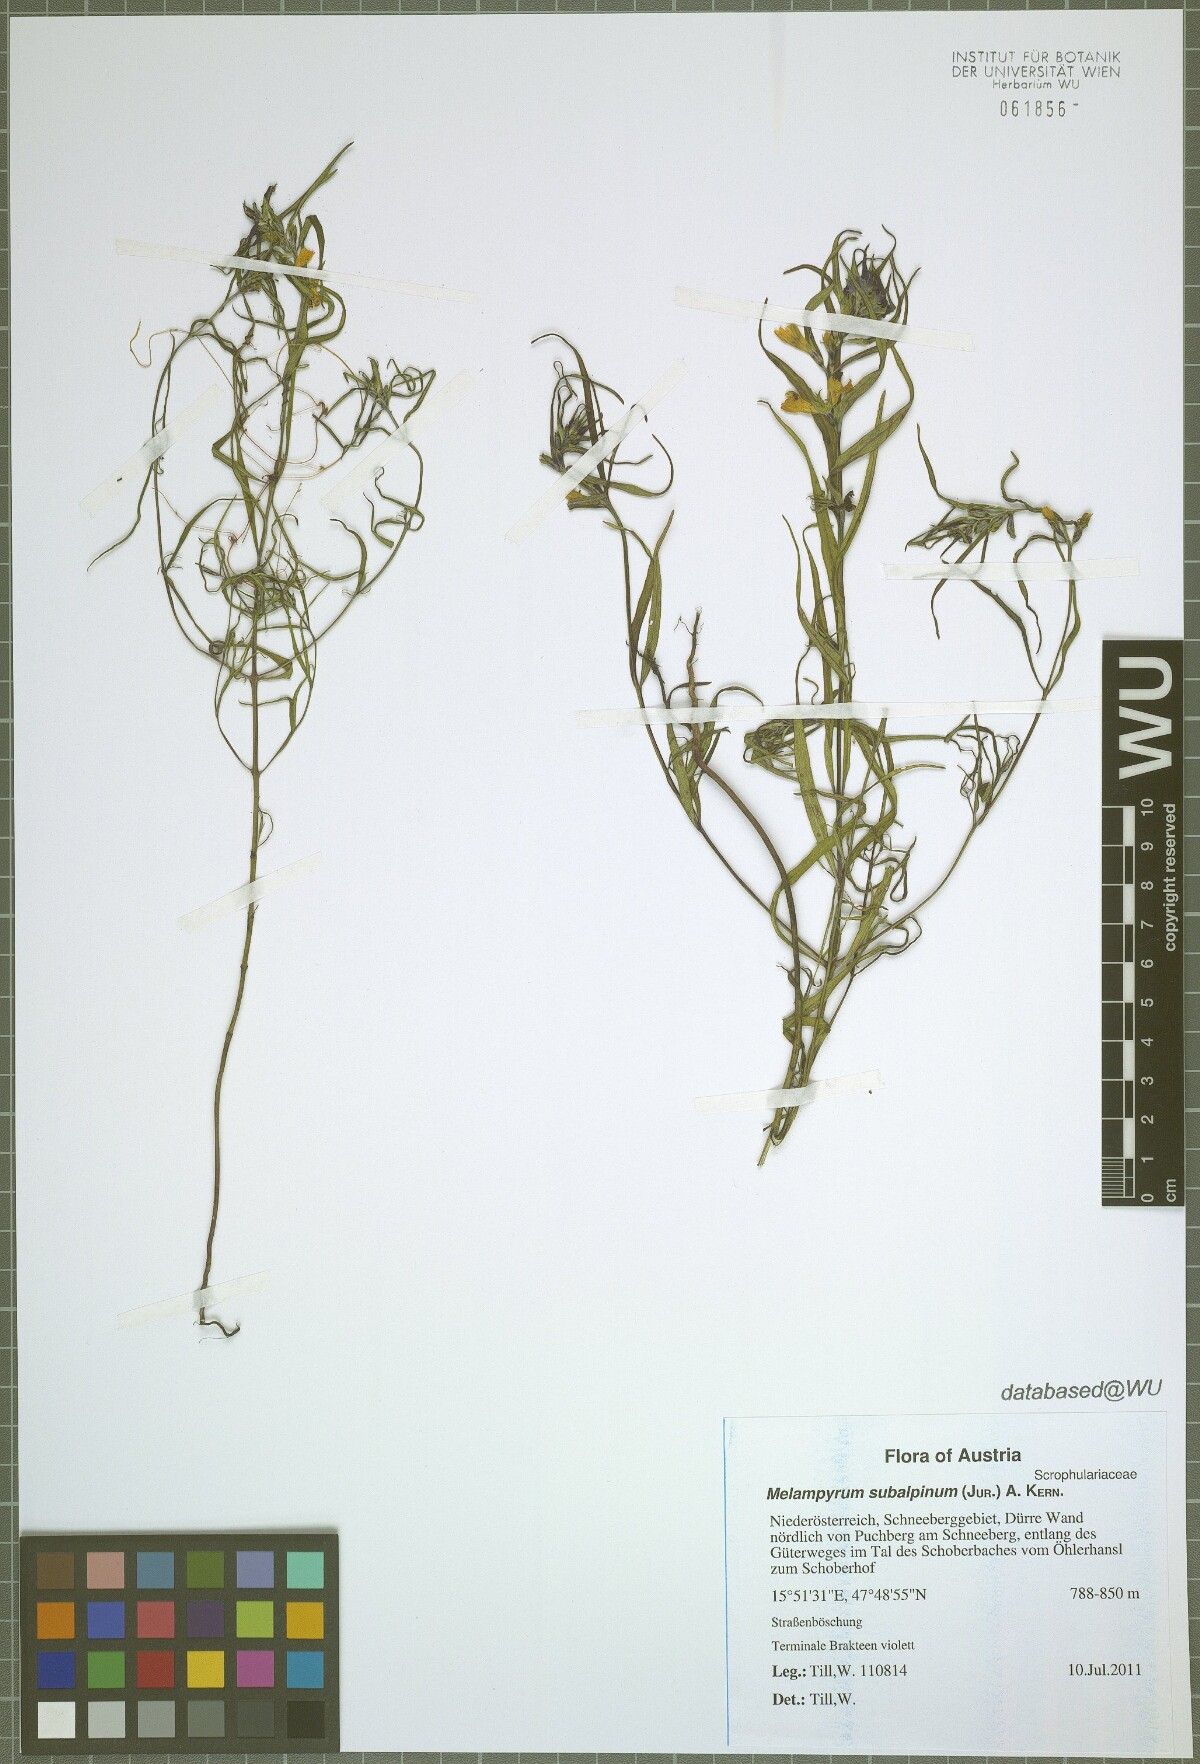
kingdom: Plantae
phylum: Tracheophyta
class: Magnoliopsida
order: Lamiales
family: Orobanchaceae
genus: Melampyrum
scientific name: Melampyrum subalpinum
